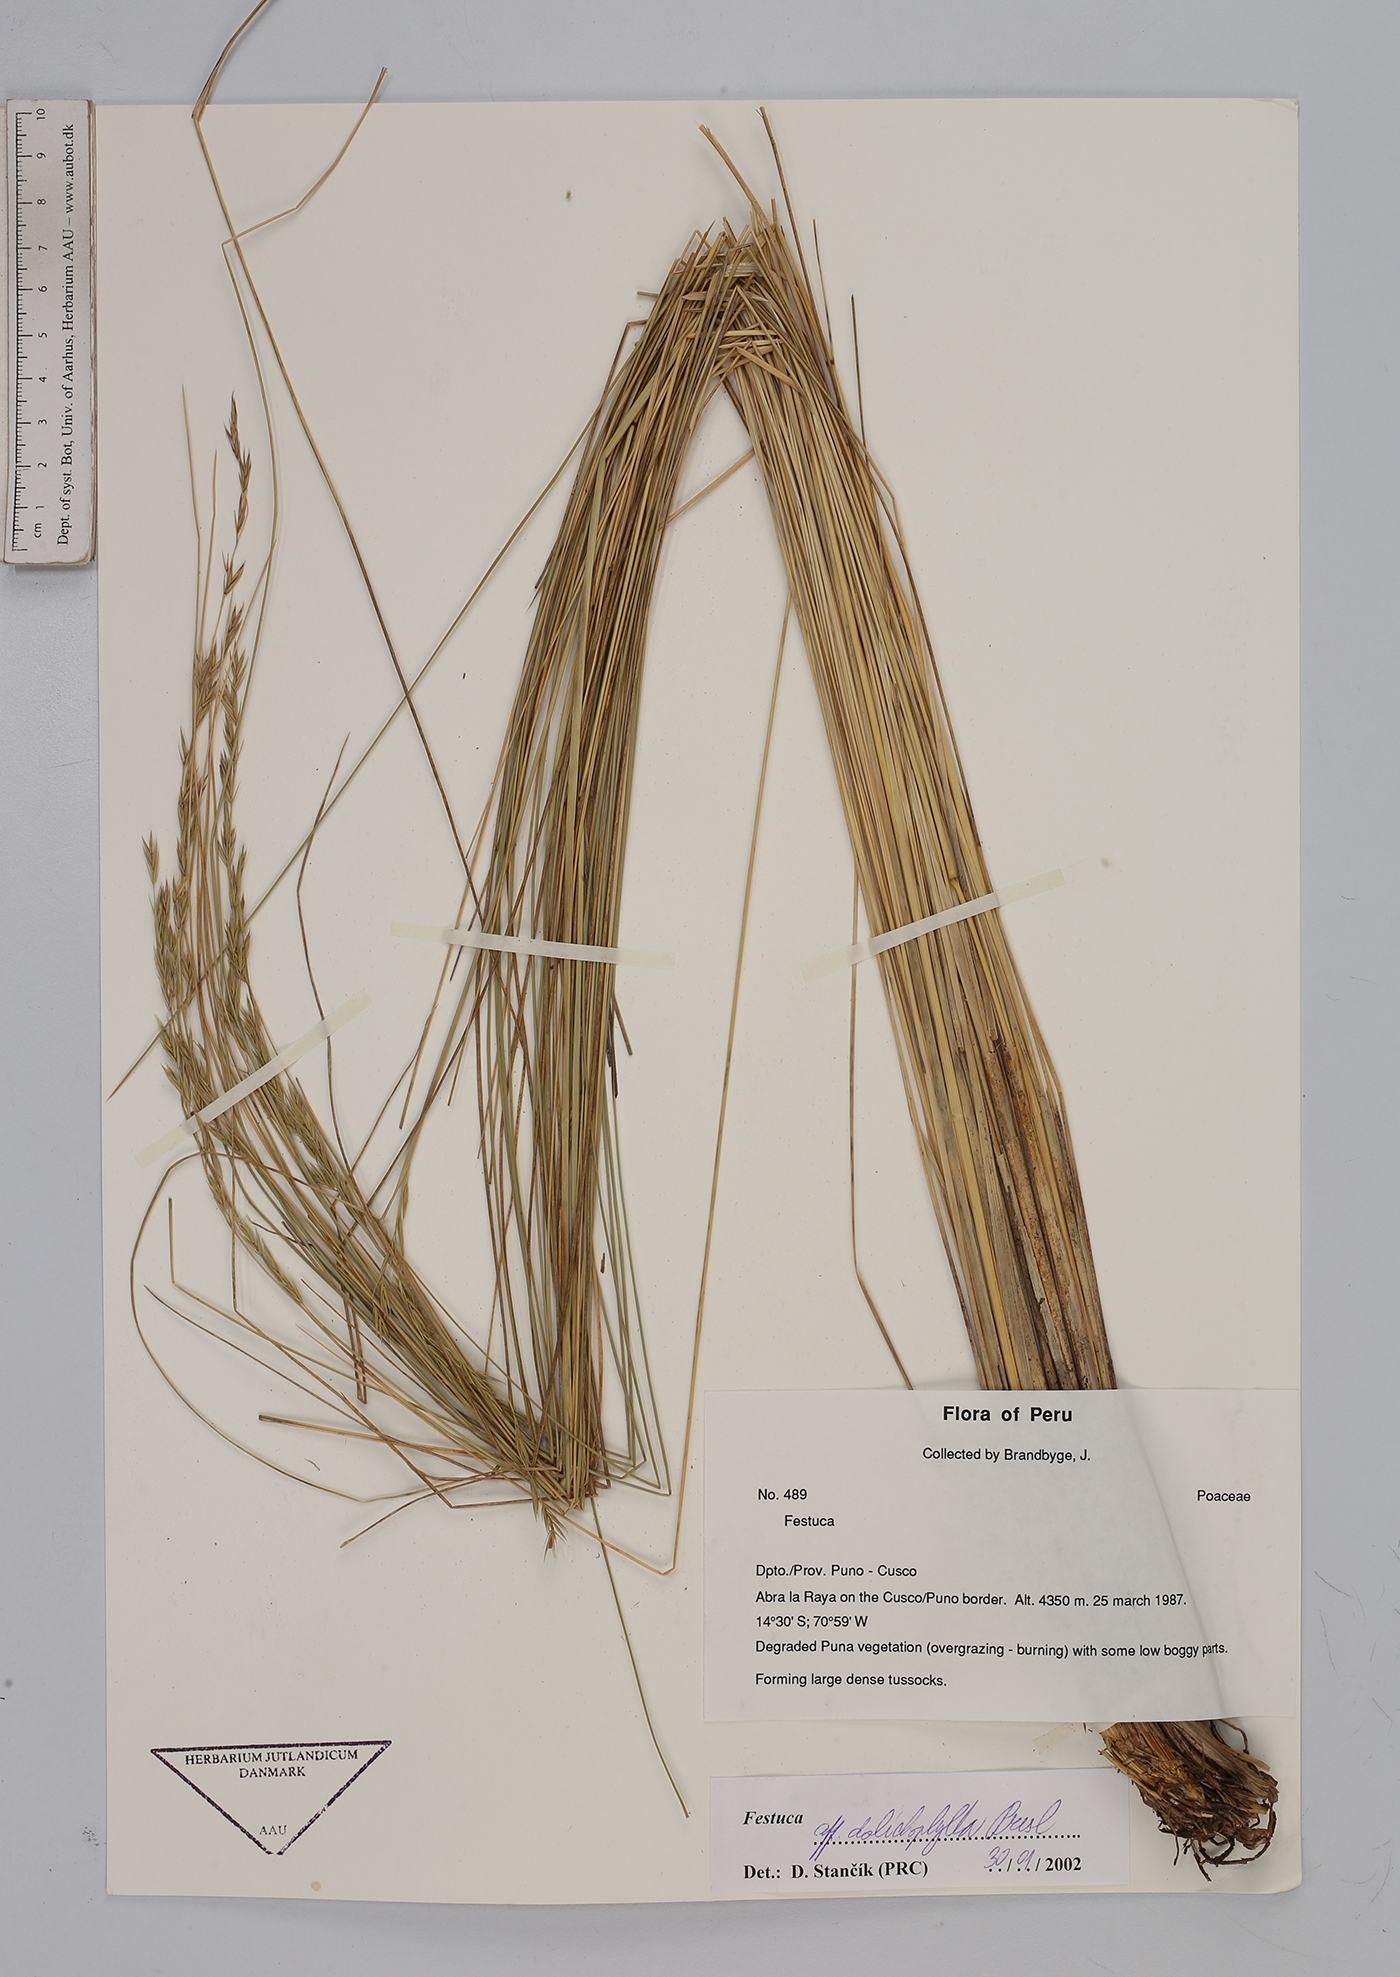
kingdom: Plantae
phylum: Tracheophyta
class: Liliopsida
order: Poales
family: Poaceae
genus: Festuca
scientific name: Festuca dolichophylla
